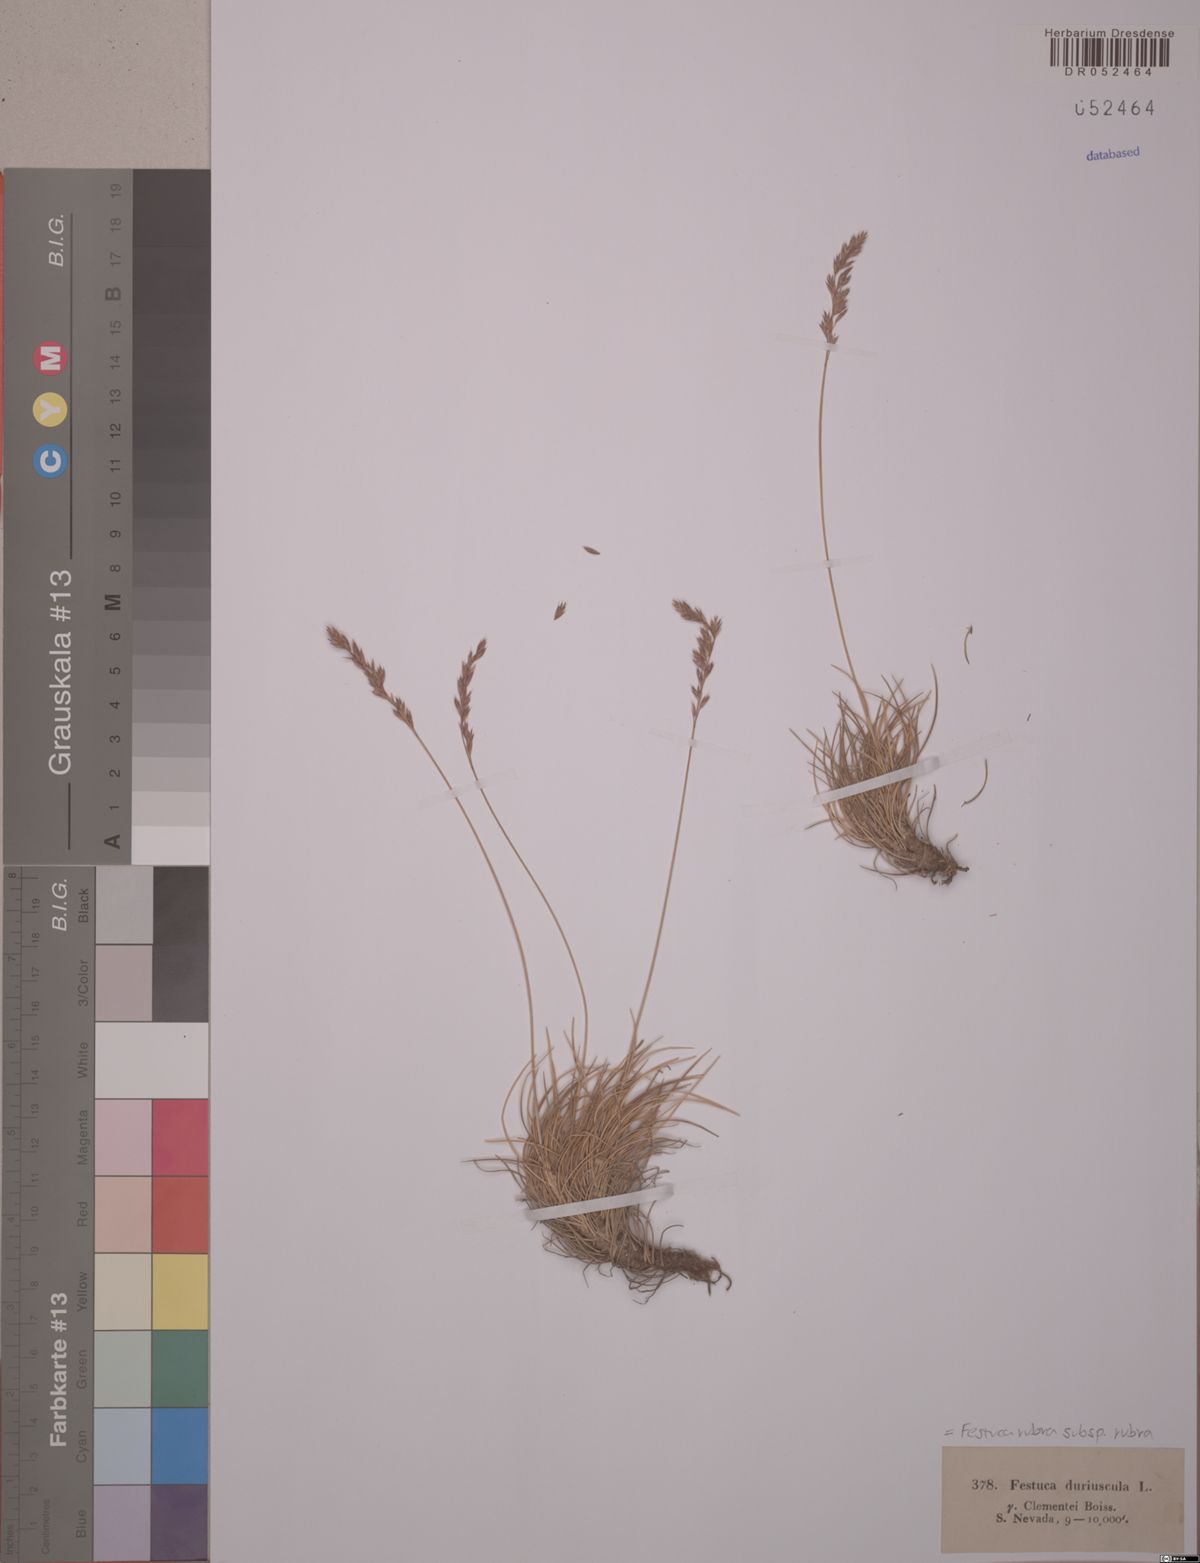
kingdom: Plantae
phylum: Tracheophyta
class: Liliopsida
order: Poales
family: Poaceae
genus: Festuca
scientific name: Festuca clementei
